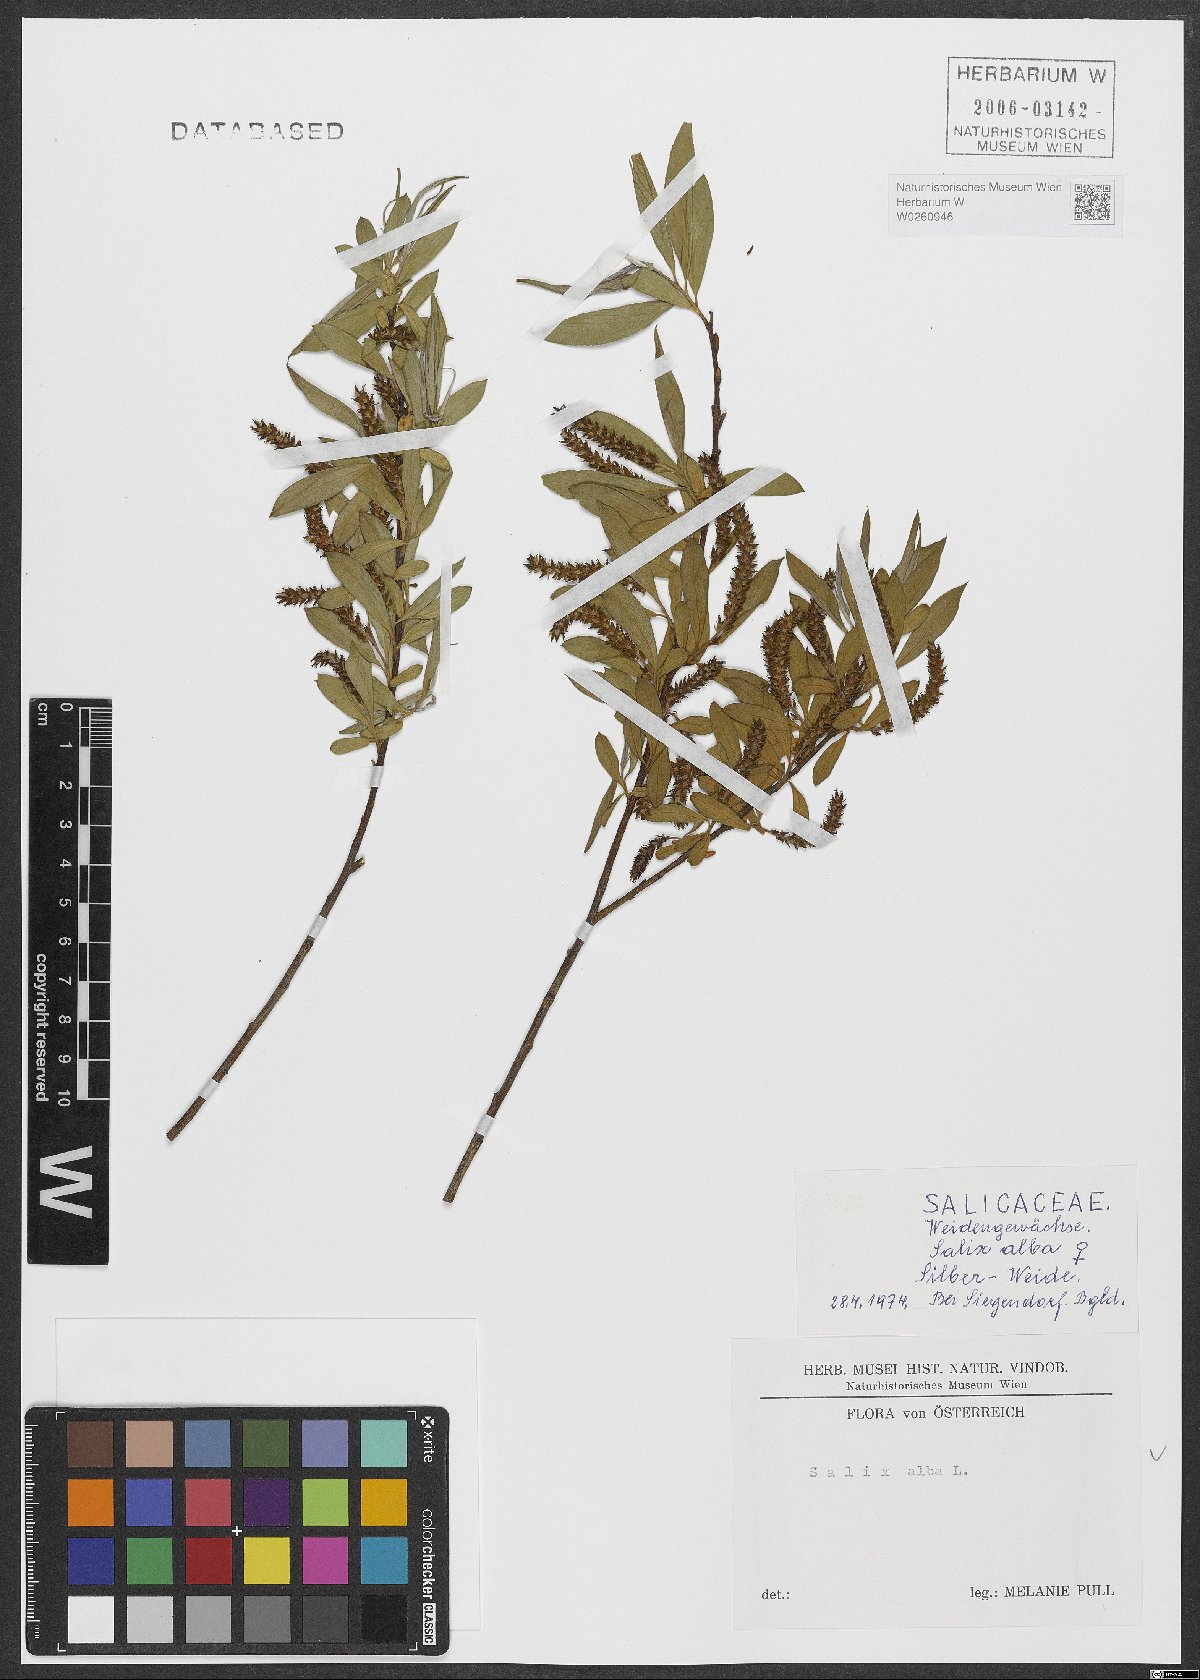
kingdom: Plantae
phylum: Tracheophyta
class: Magnoliopsida
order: Malpighiales
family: Salicaceae
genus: Salix
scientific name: Salix alba
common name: White willow
